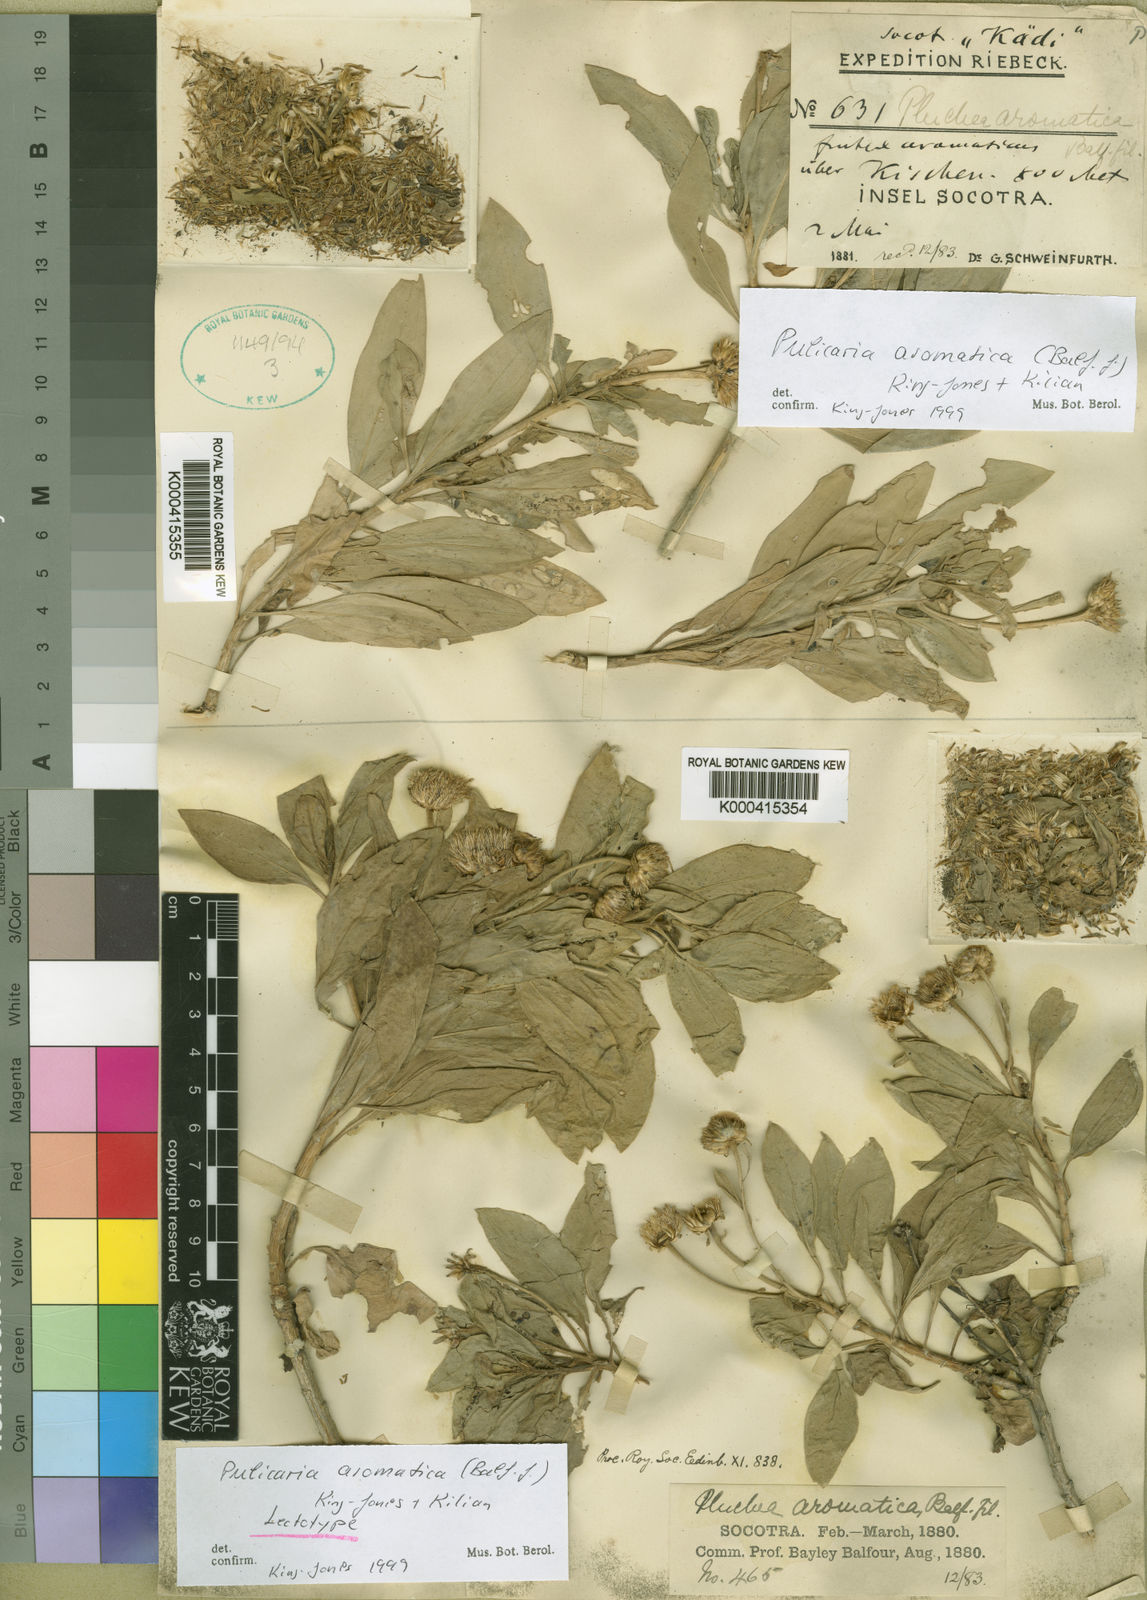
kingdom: Plantae
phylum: Tracheophyta
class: Magnoliopsida
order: Asterales
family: Asteraceae
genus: Pulicaria
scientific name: Pulicaria aromatica
